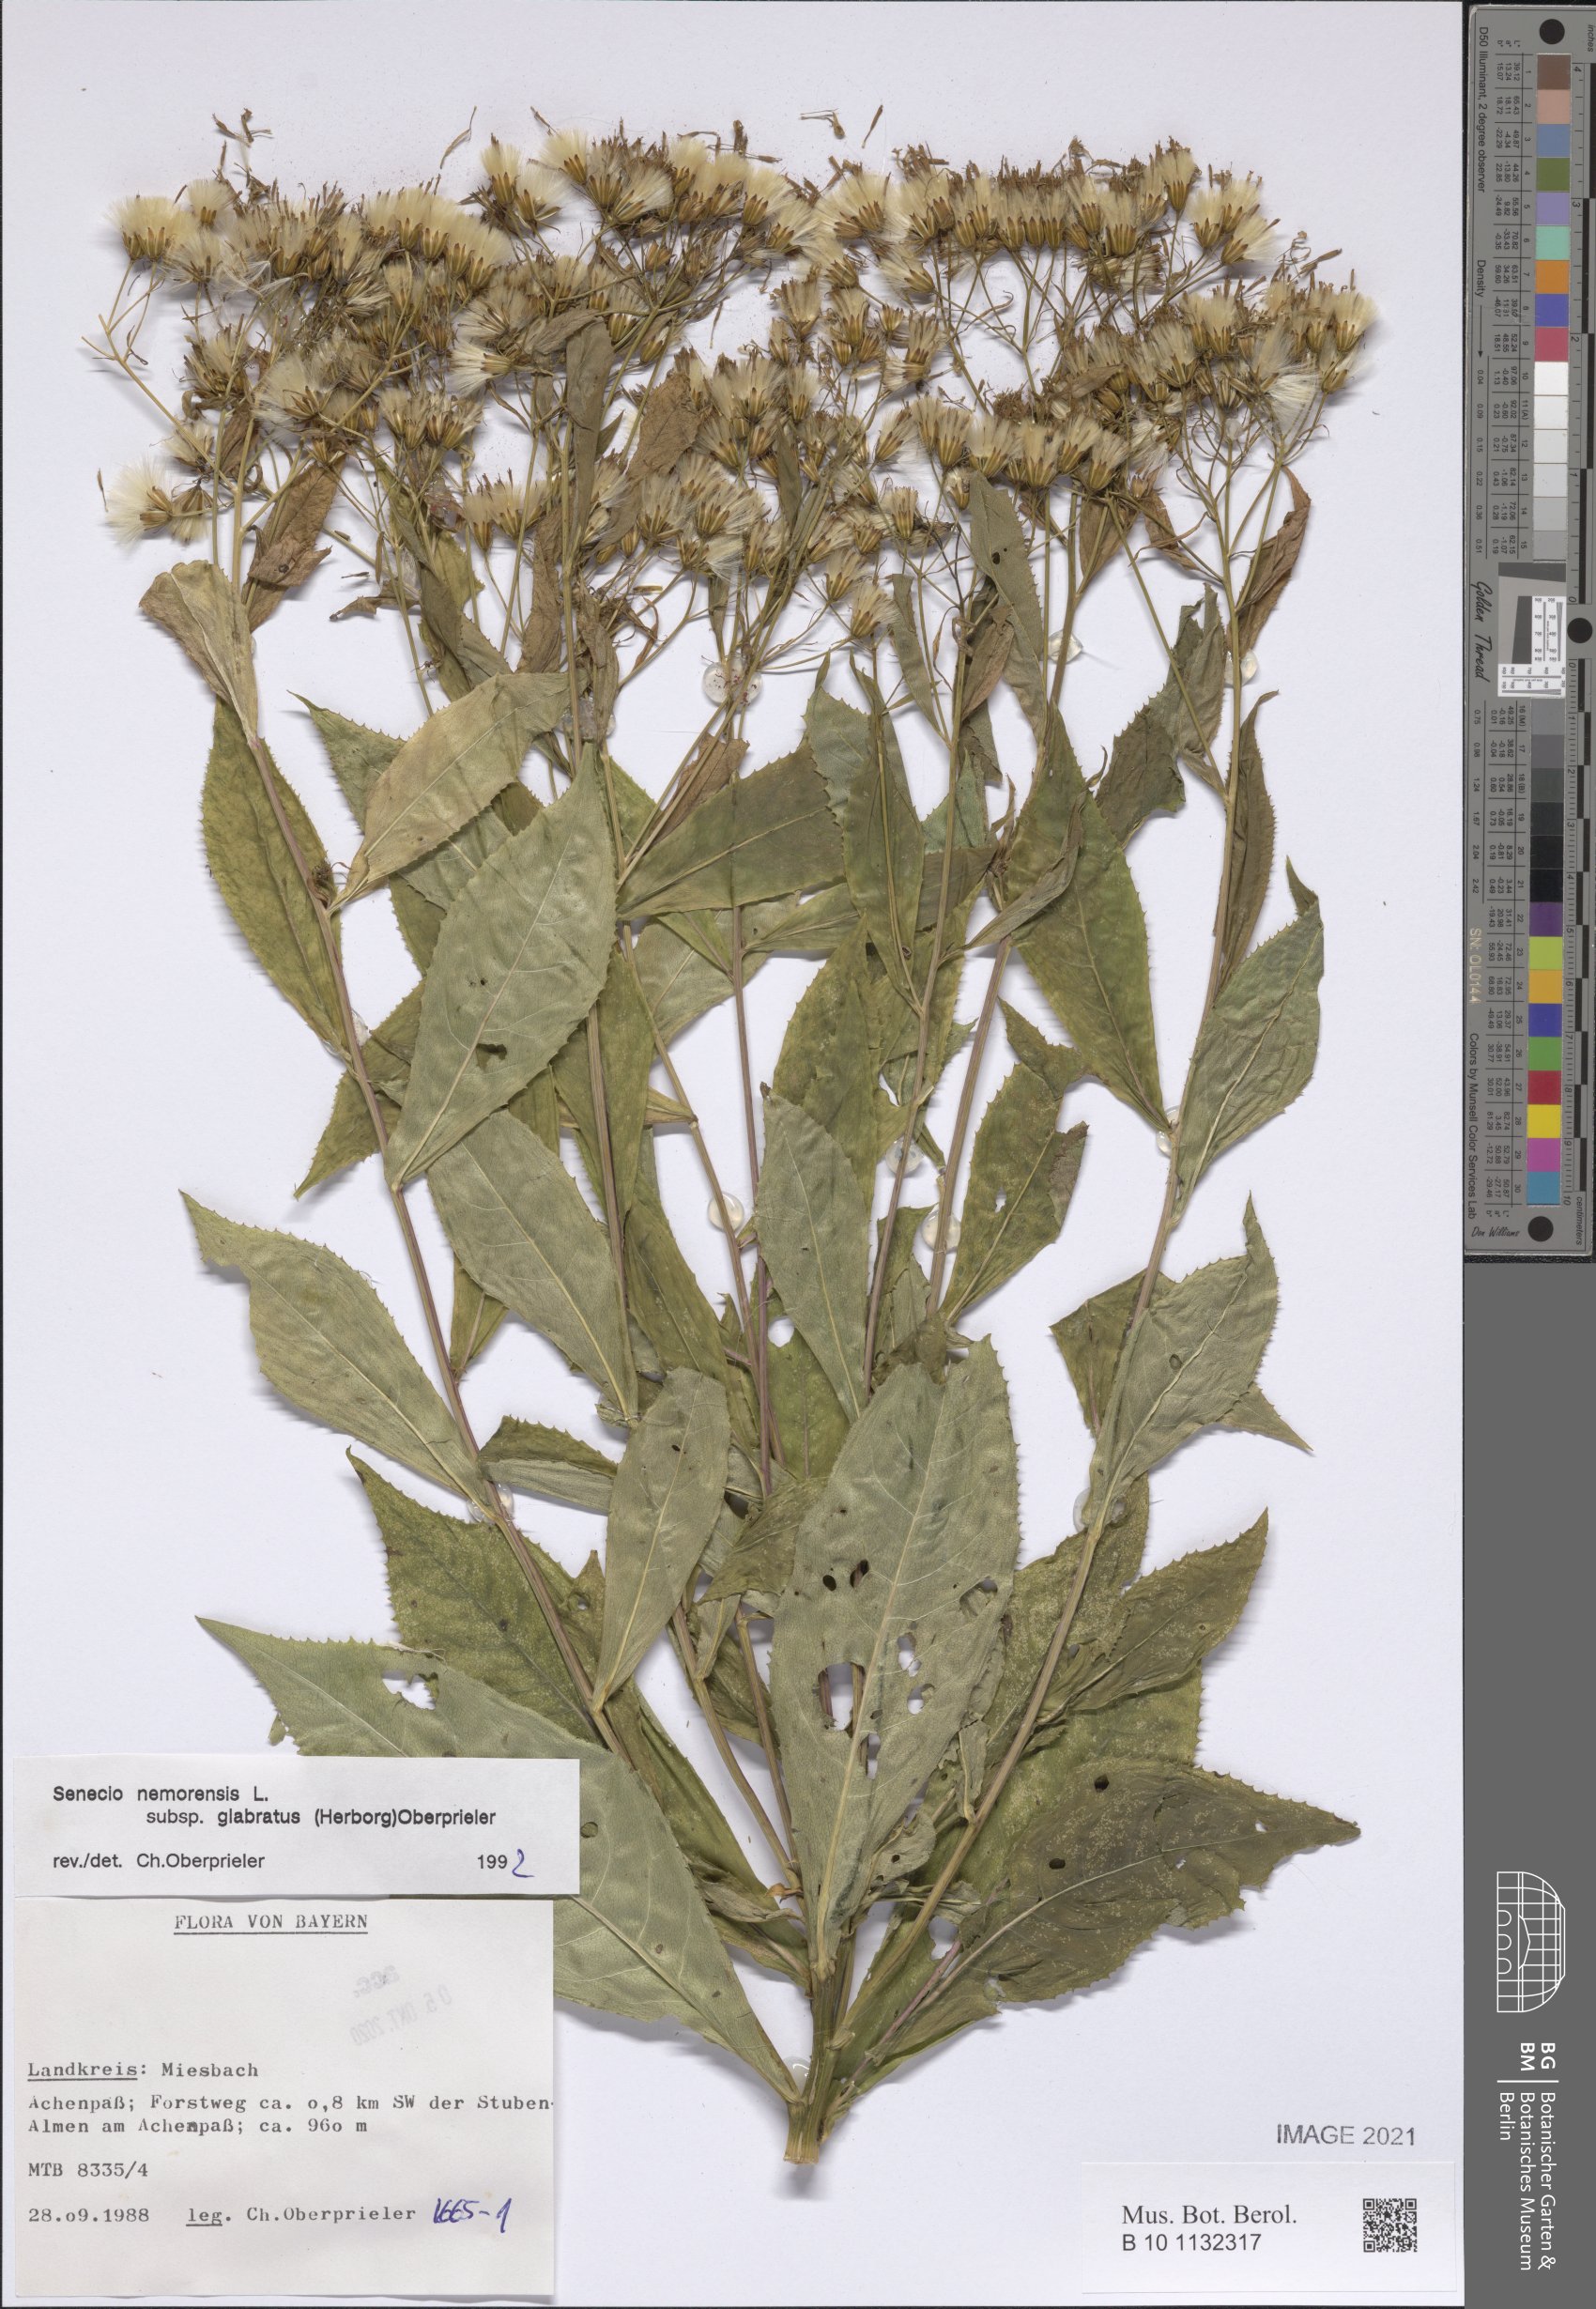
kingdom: Plantae
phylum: Tracheophyta
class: Magnoliopsida
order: Asterales
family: Asteraceae
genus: Senecio
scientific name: Senecio germanicus
